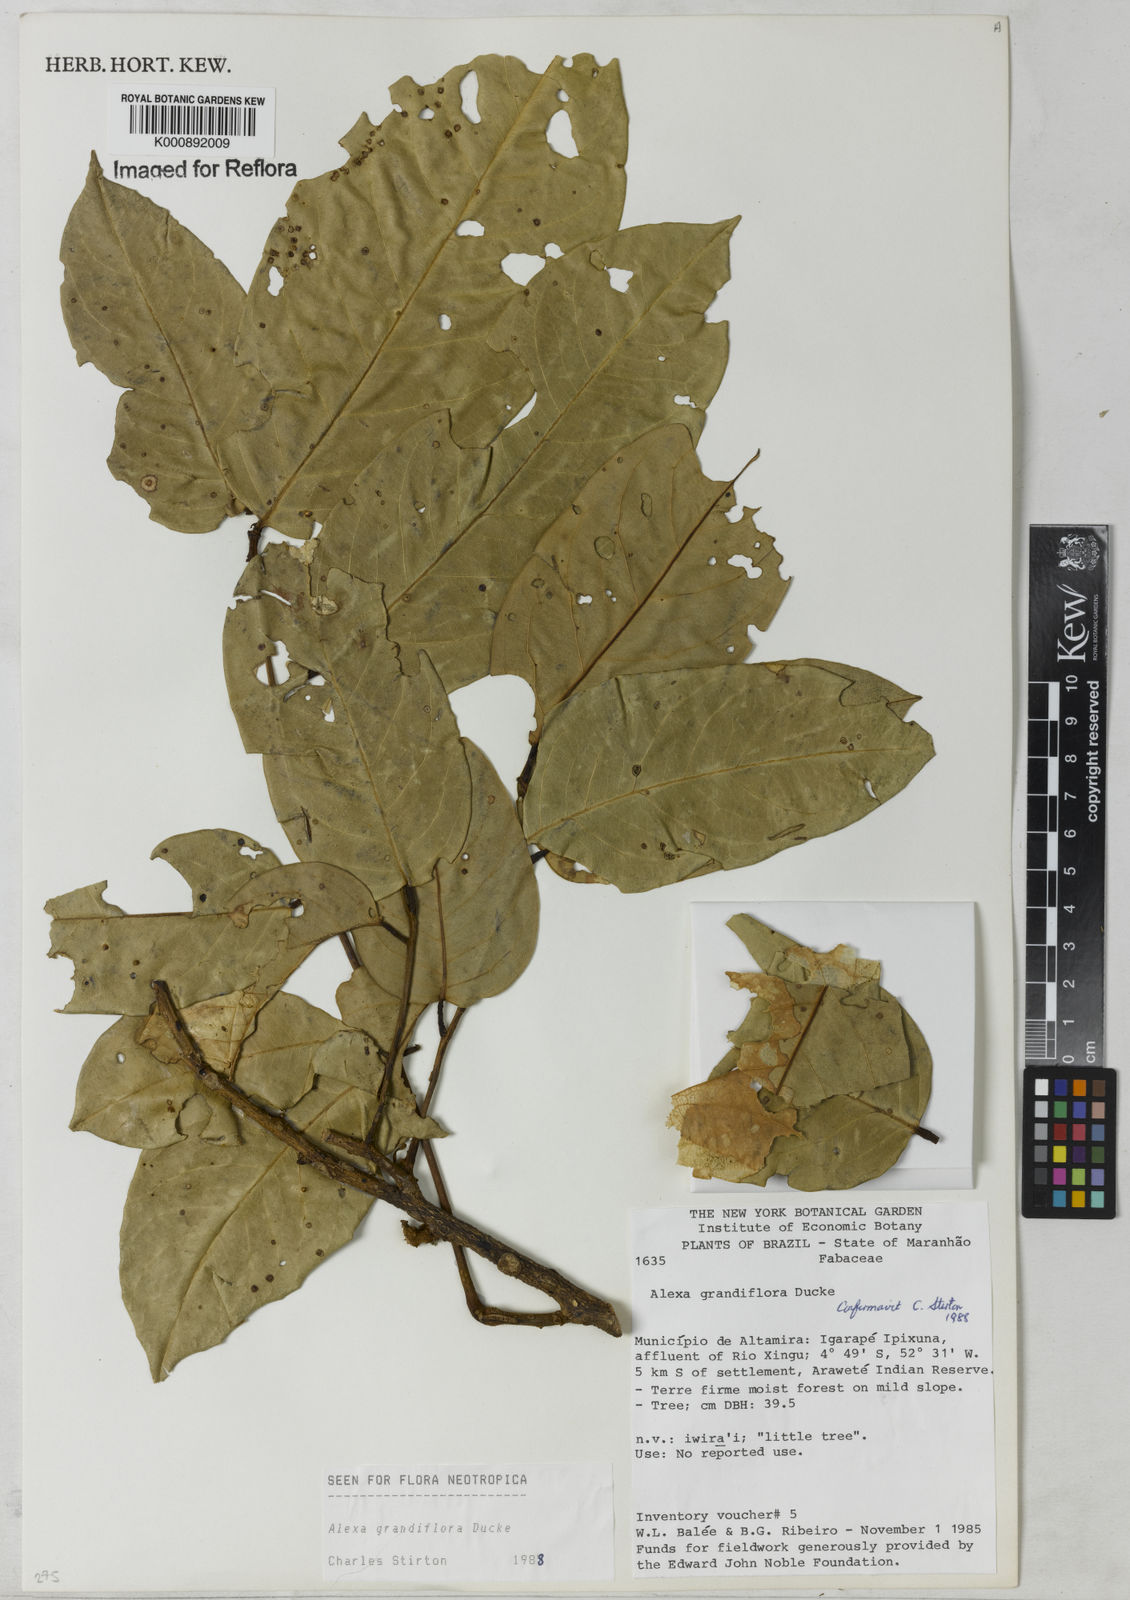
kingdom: Plantae
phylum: Tracheophyta
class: Magnoliopsida
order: Fabales
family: Fabaceae
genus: Alexa
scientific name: Alexa grandiflora
